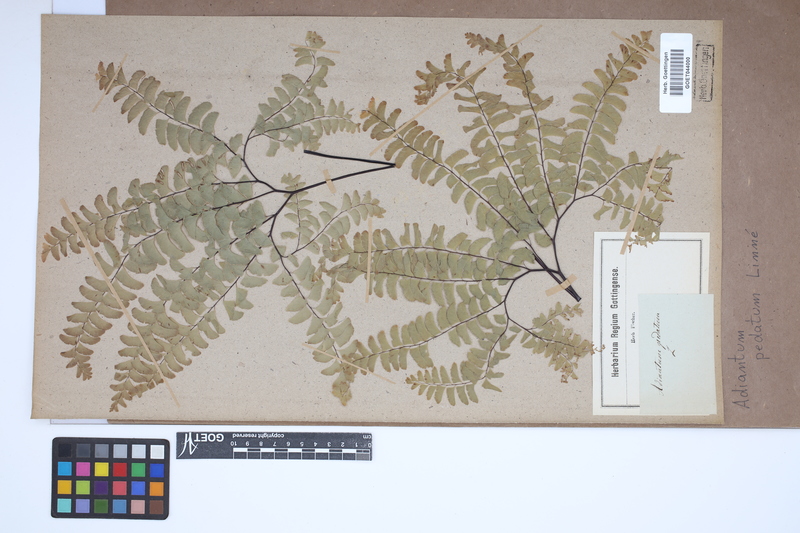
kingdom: Plantae
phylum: Tracheophyta
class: Polypodiopsida
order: Polypodiales
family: Pteridaceae
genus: Adiantum
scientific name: Adiantum pedatum
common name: Five-finger fern
